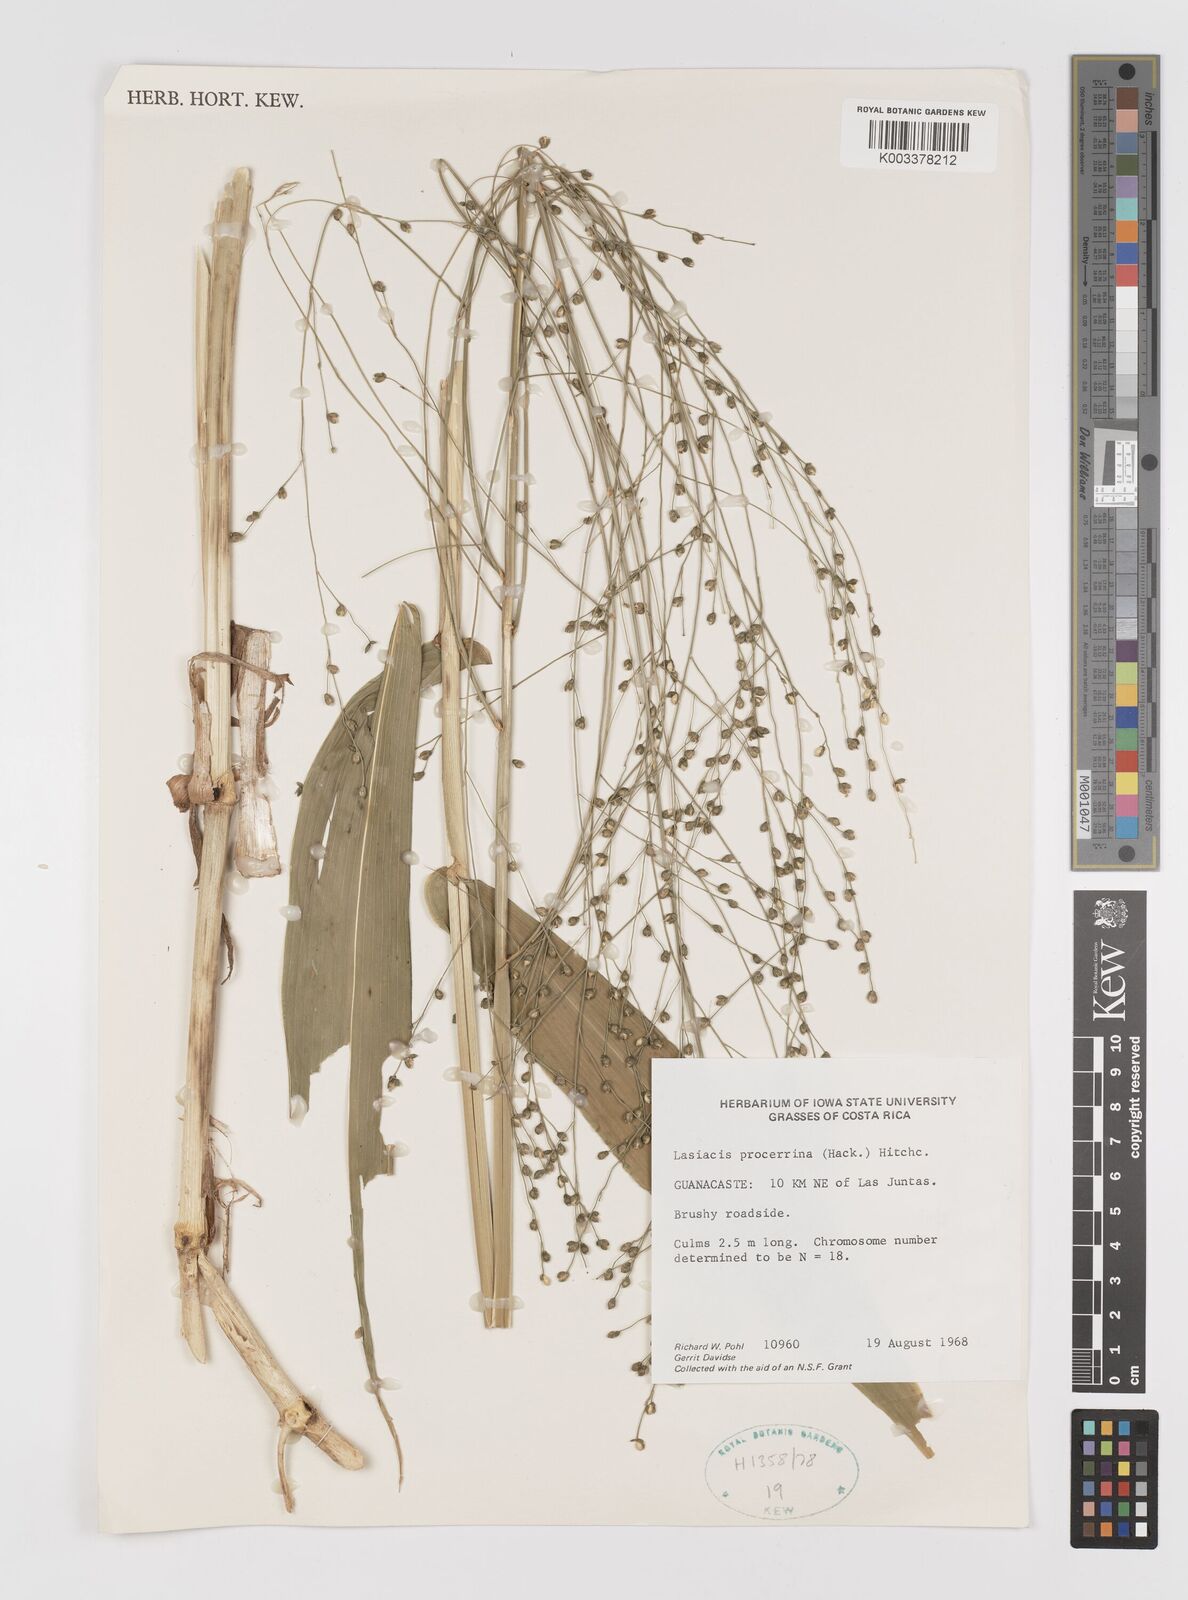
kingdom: Plantae
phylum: Tracheophyta
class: Liliopsida
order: Poales
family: Poaceae
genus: Lasiacis
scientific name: Lasiacis procerrima
